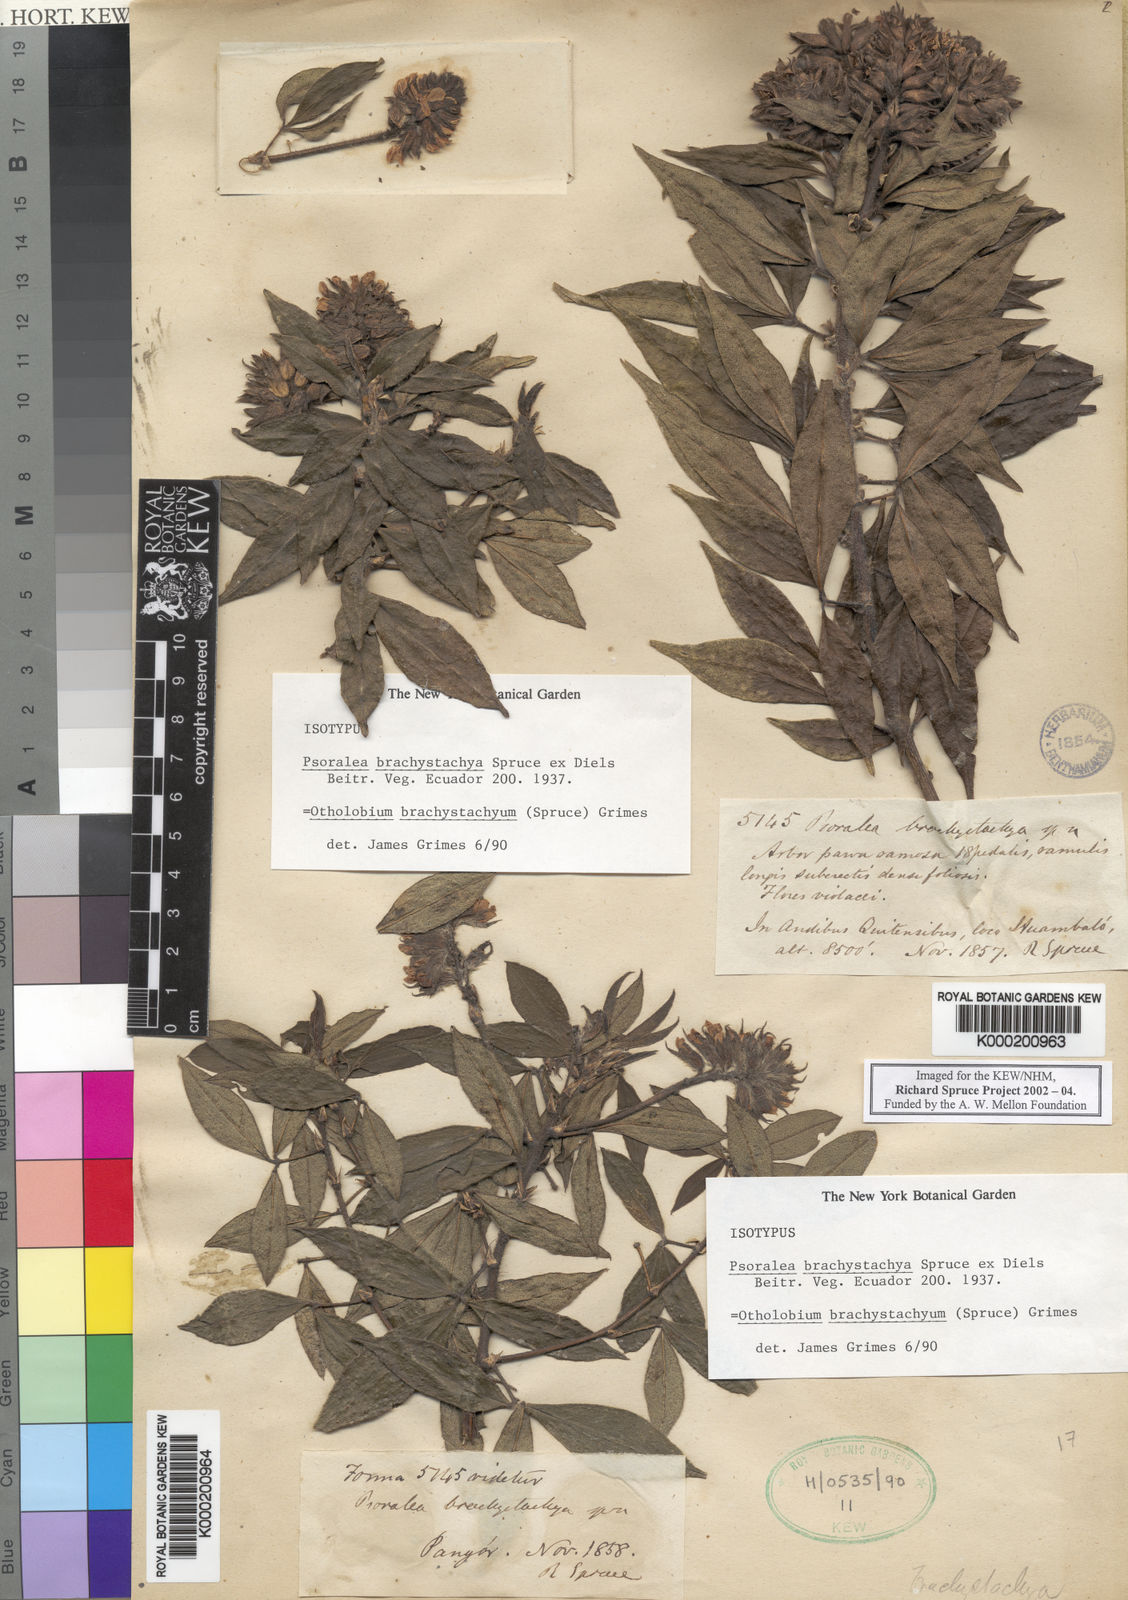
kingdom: Plantae
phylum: Tracheophyta
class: Magnoliopsida
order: Fabales
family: Fabaceae
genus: Psoralea
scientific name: Psoralea Otholobium brachystachyum
